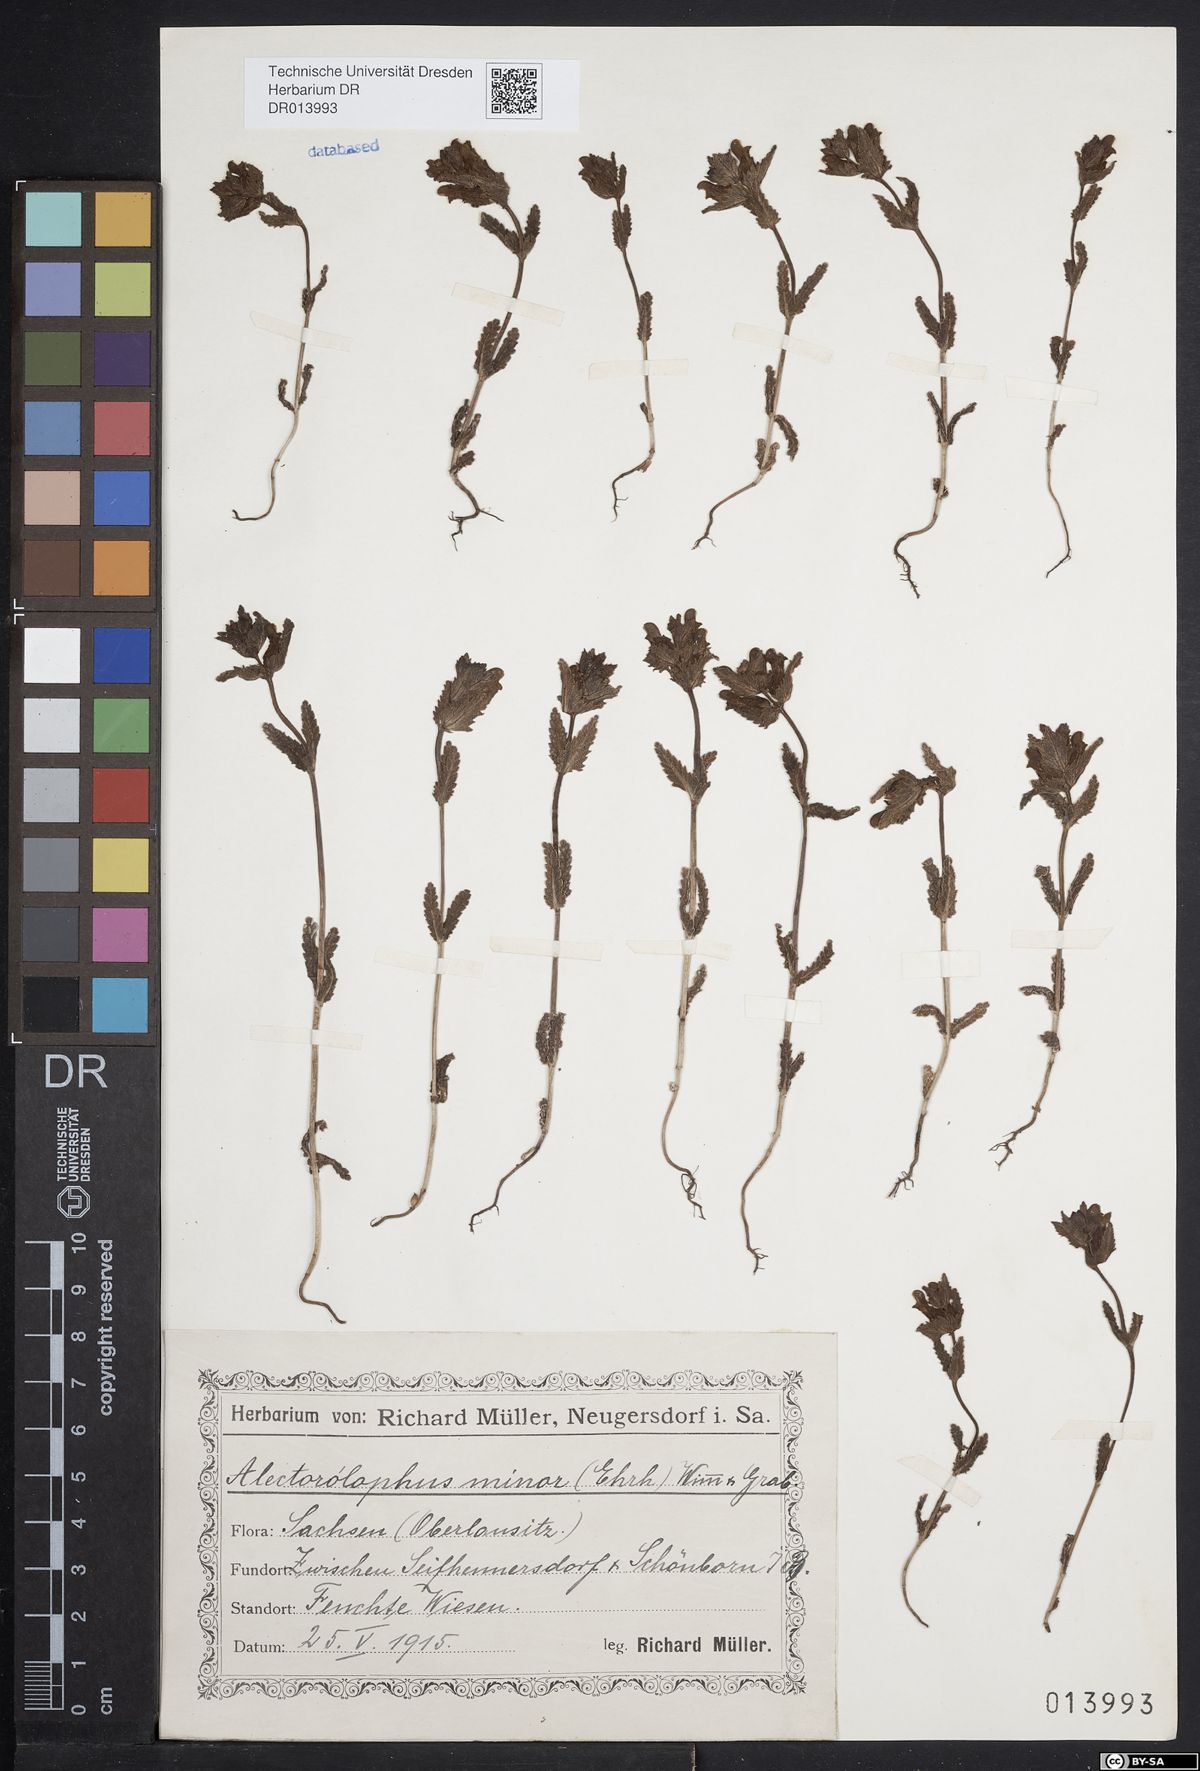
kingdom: Plantae
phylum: Tracheophyta
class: Magnoliopsida
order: Lamiales
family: Orobanchaceae
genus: Rhinanthus
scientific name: Rhinanthus minor
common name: Yellow-rattle
